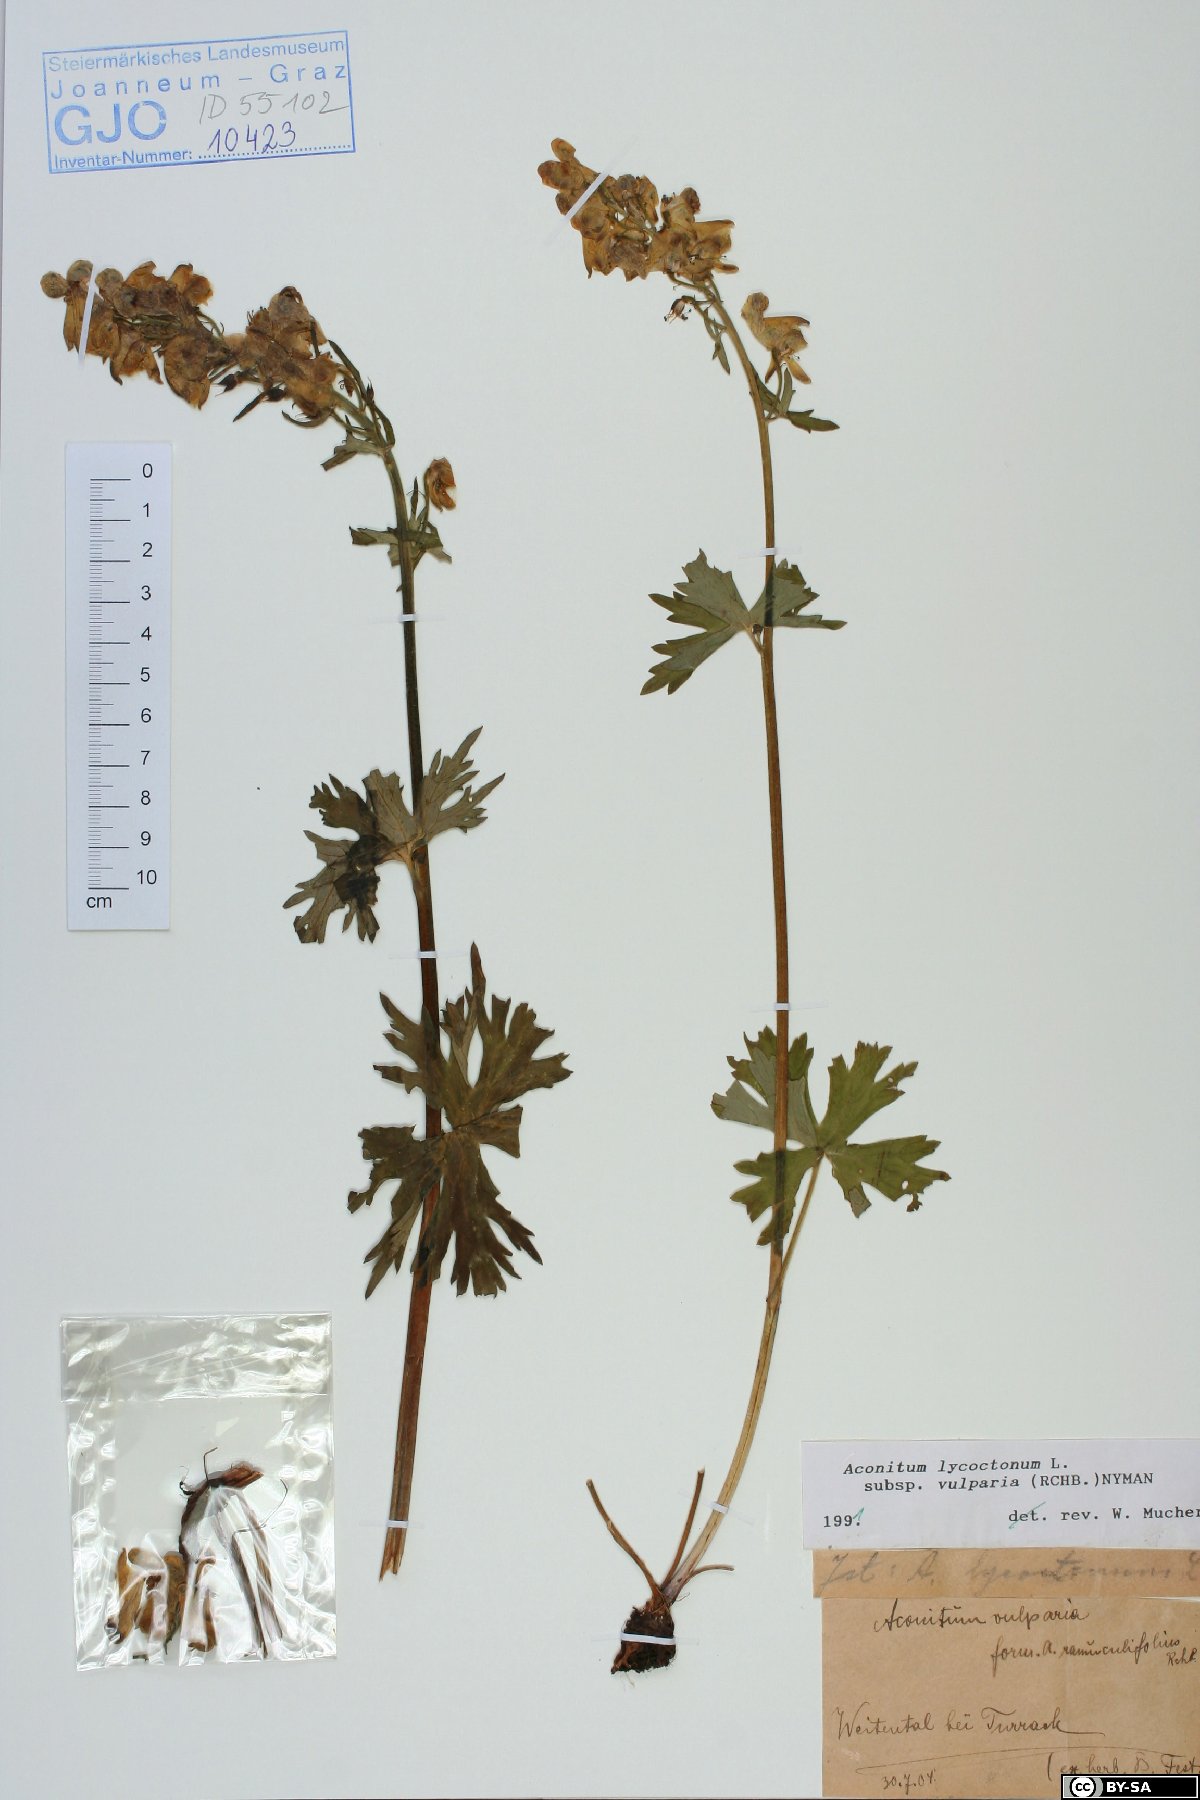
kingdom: Plantae
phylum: Tracheophyta
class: Magnoliopsida
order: Ranunculales
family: Ranunculaceae
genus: Aconitum
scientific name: Aconitum lycoctonum
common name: Wolf's-bane
